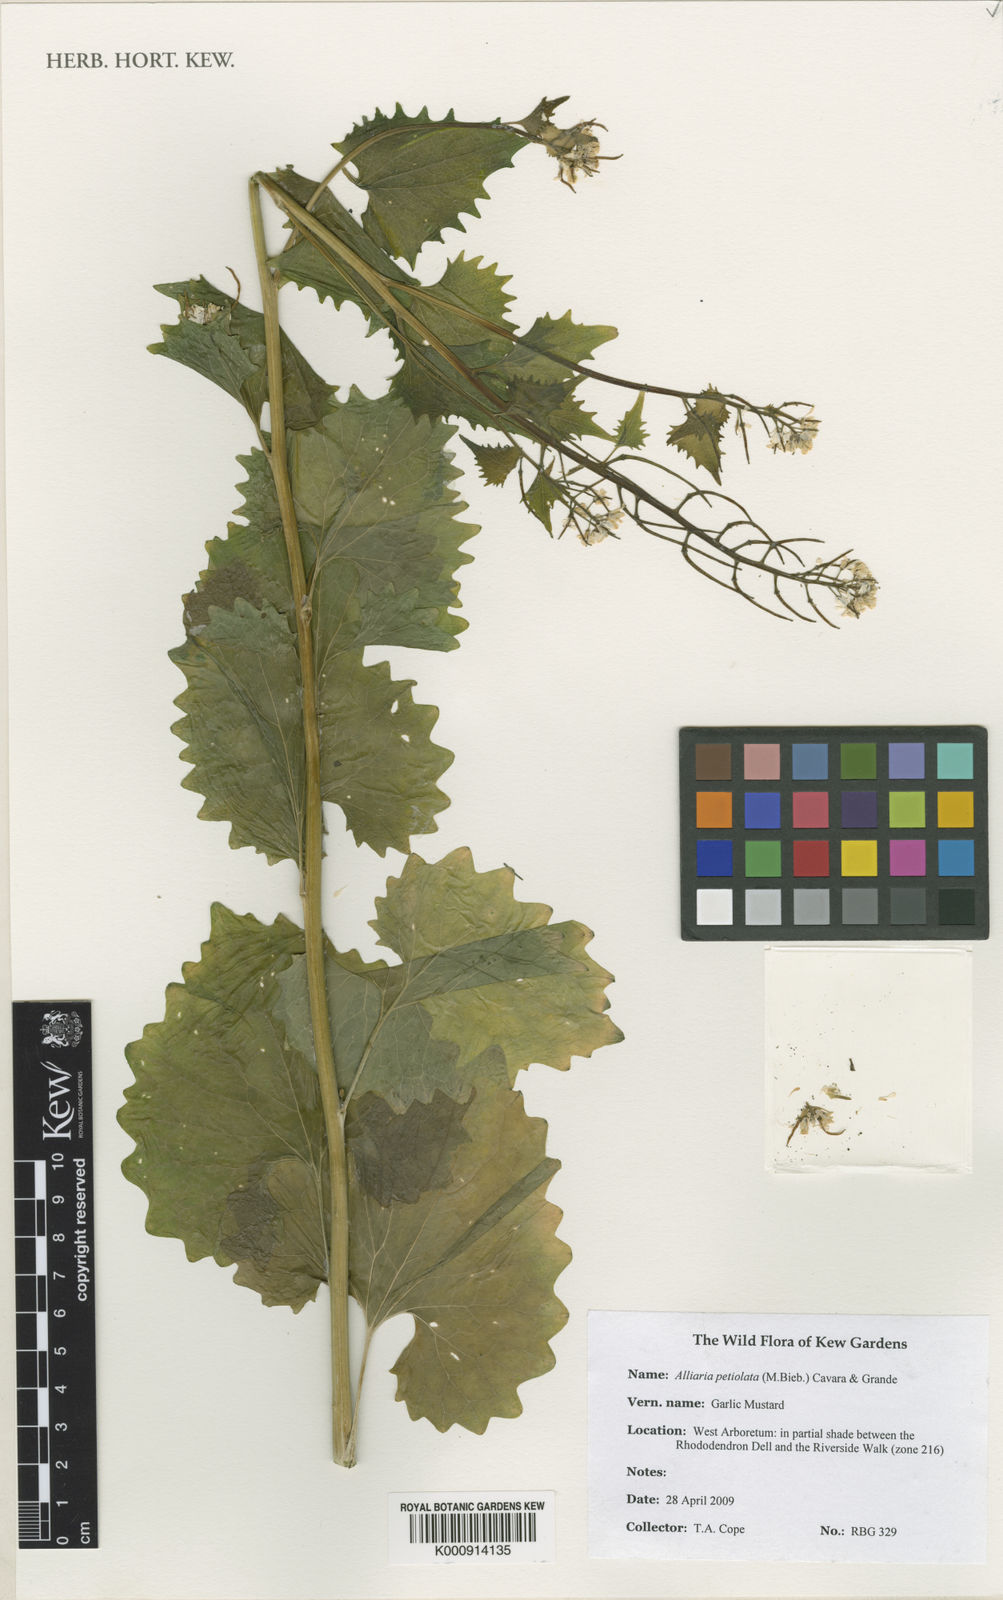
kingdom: Plantae
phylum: Tracheophyta
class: Magnoliopsida
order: Brassicales
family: Brassicaceae
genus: Alliaria
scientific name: Alliaria petiolata
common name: Garlic mustard
